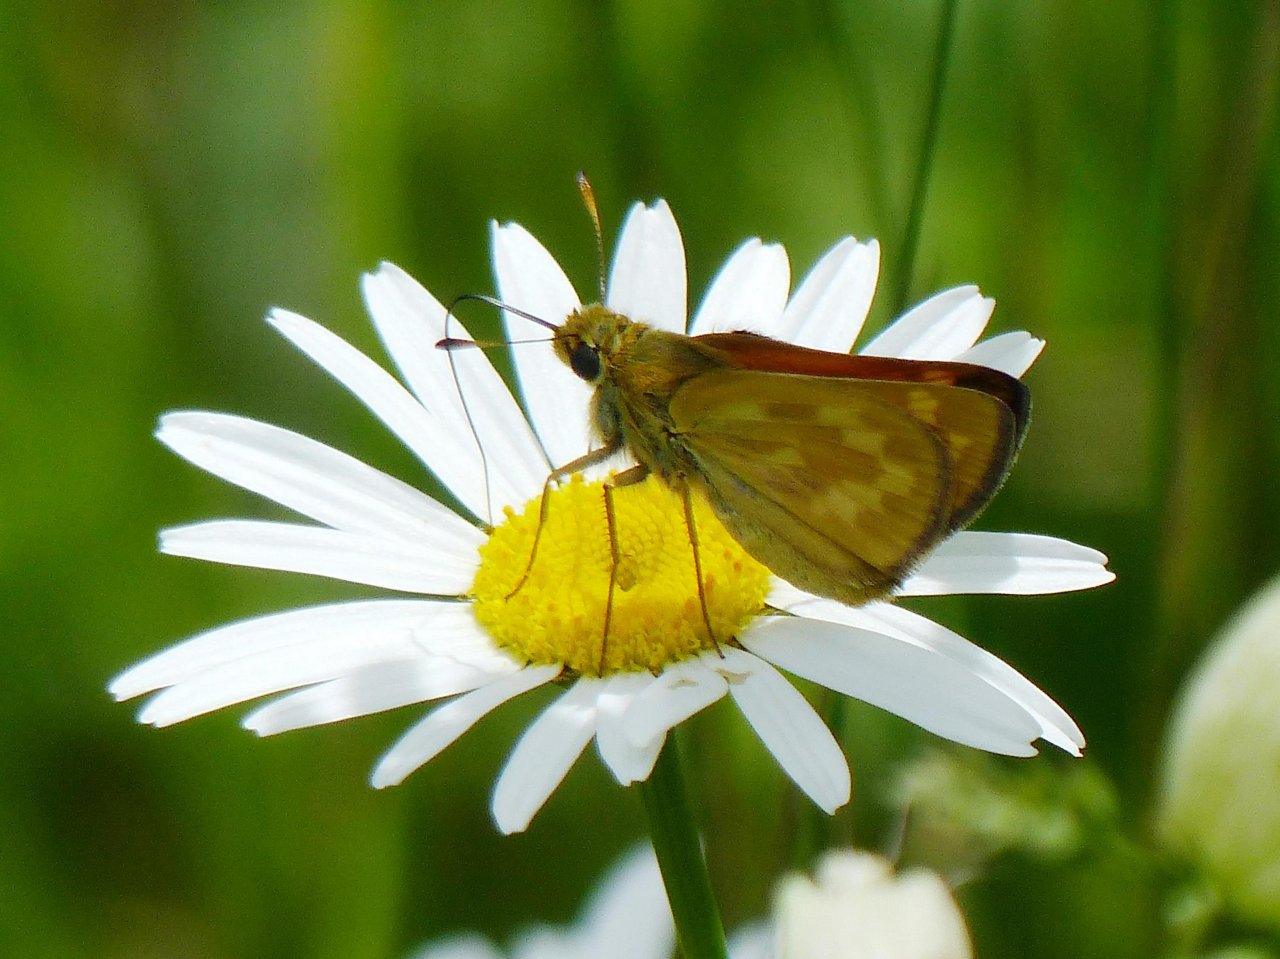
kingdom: Animalia
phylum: Arthropoda
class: Insecta
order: Lepidoptera
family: Hesperiidae
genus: Hesperia
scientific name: Hesperia sassacus
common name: Sassacus Skipper
